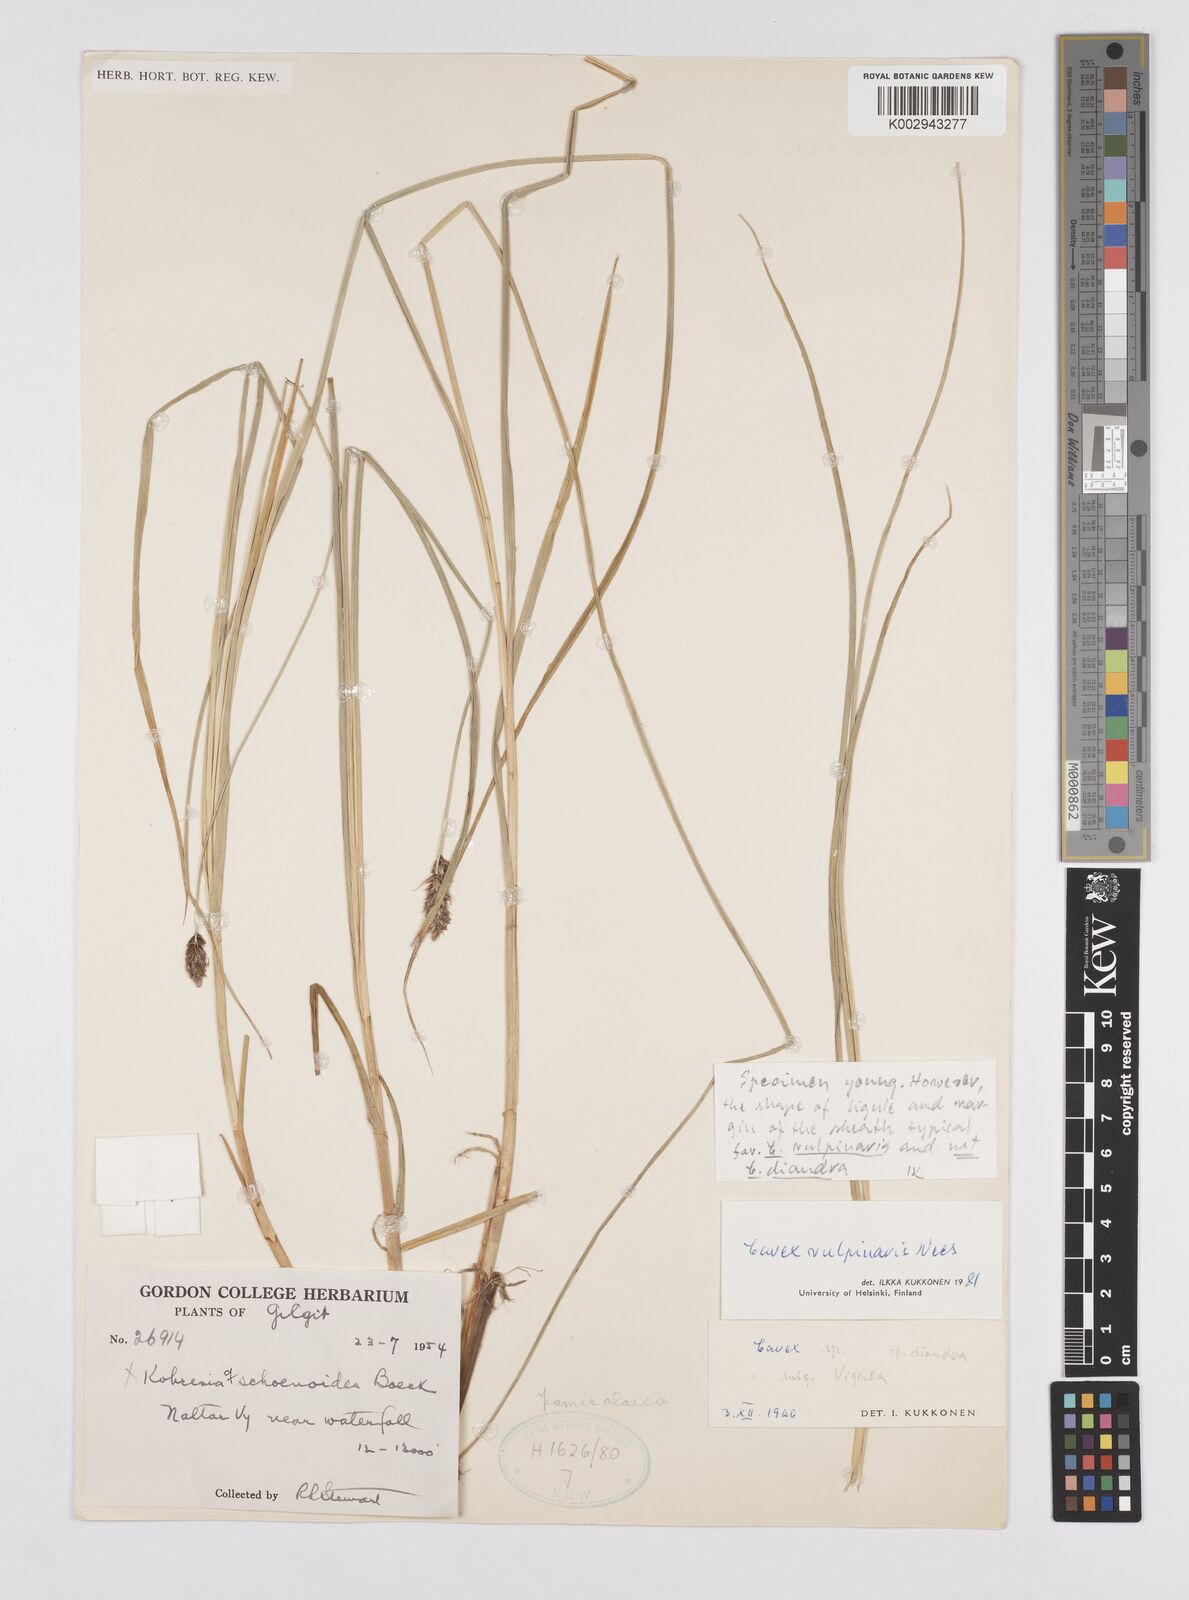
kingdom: Plantae
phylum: Tracheophyta
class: Liliopsida
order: Poales
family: Cyperaceae
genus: Carex
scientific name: Carex vulpinaris
